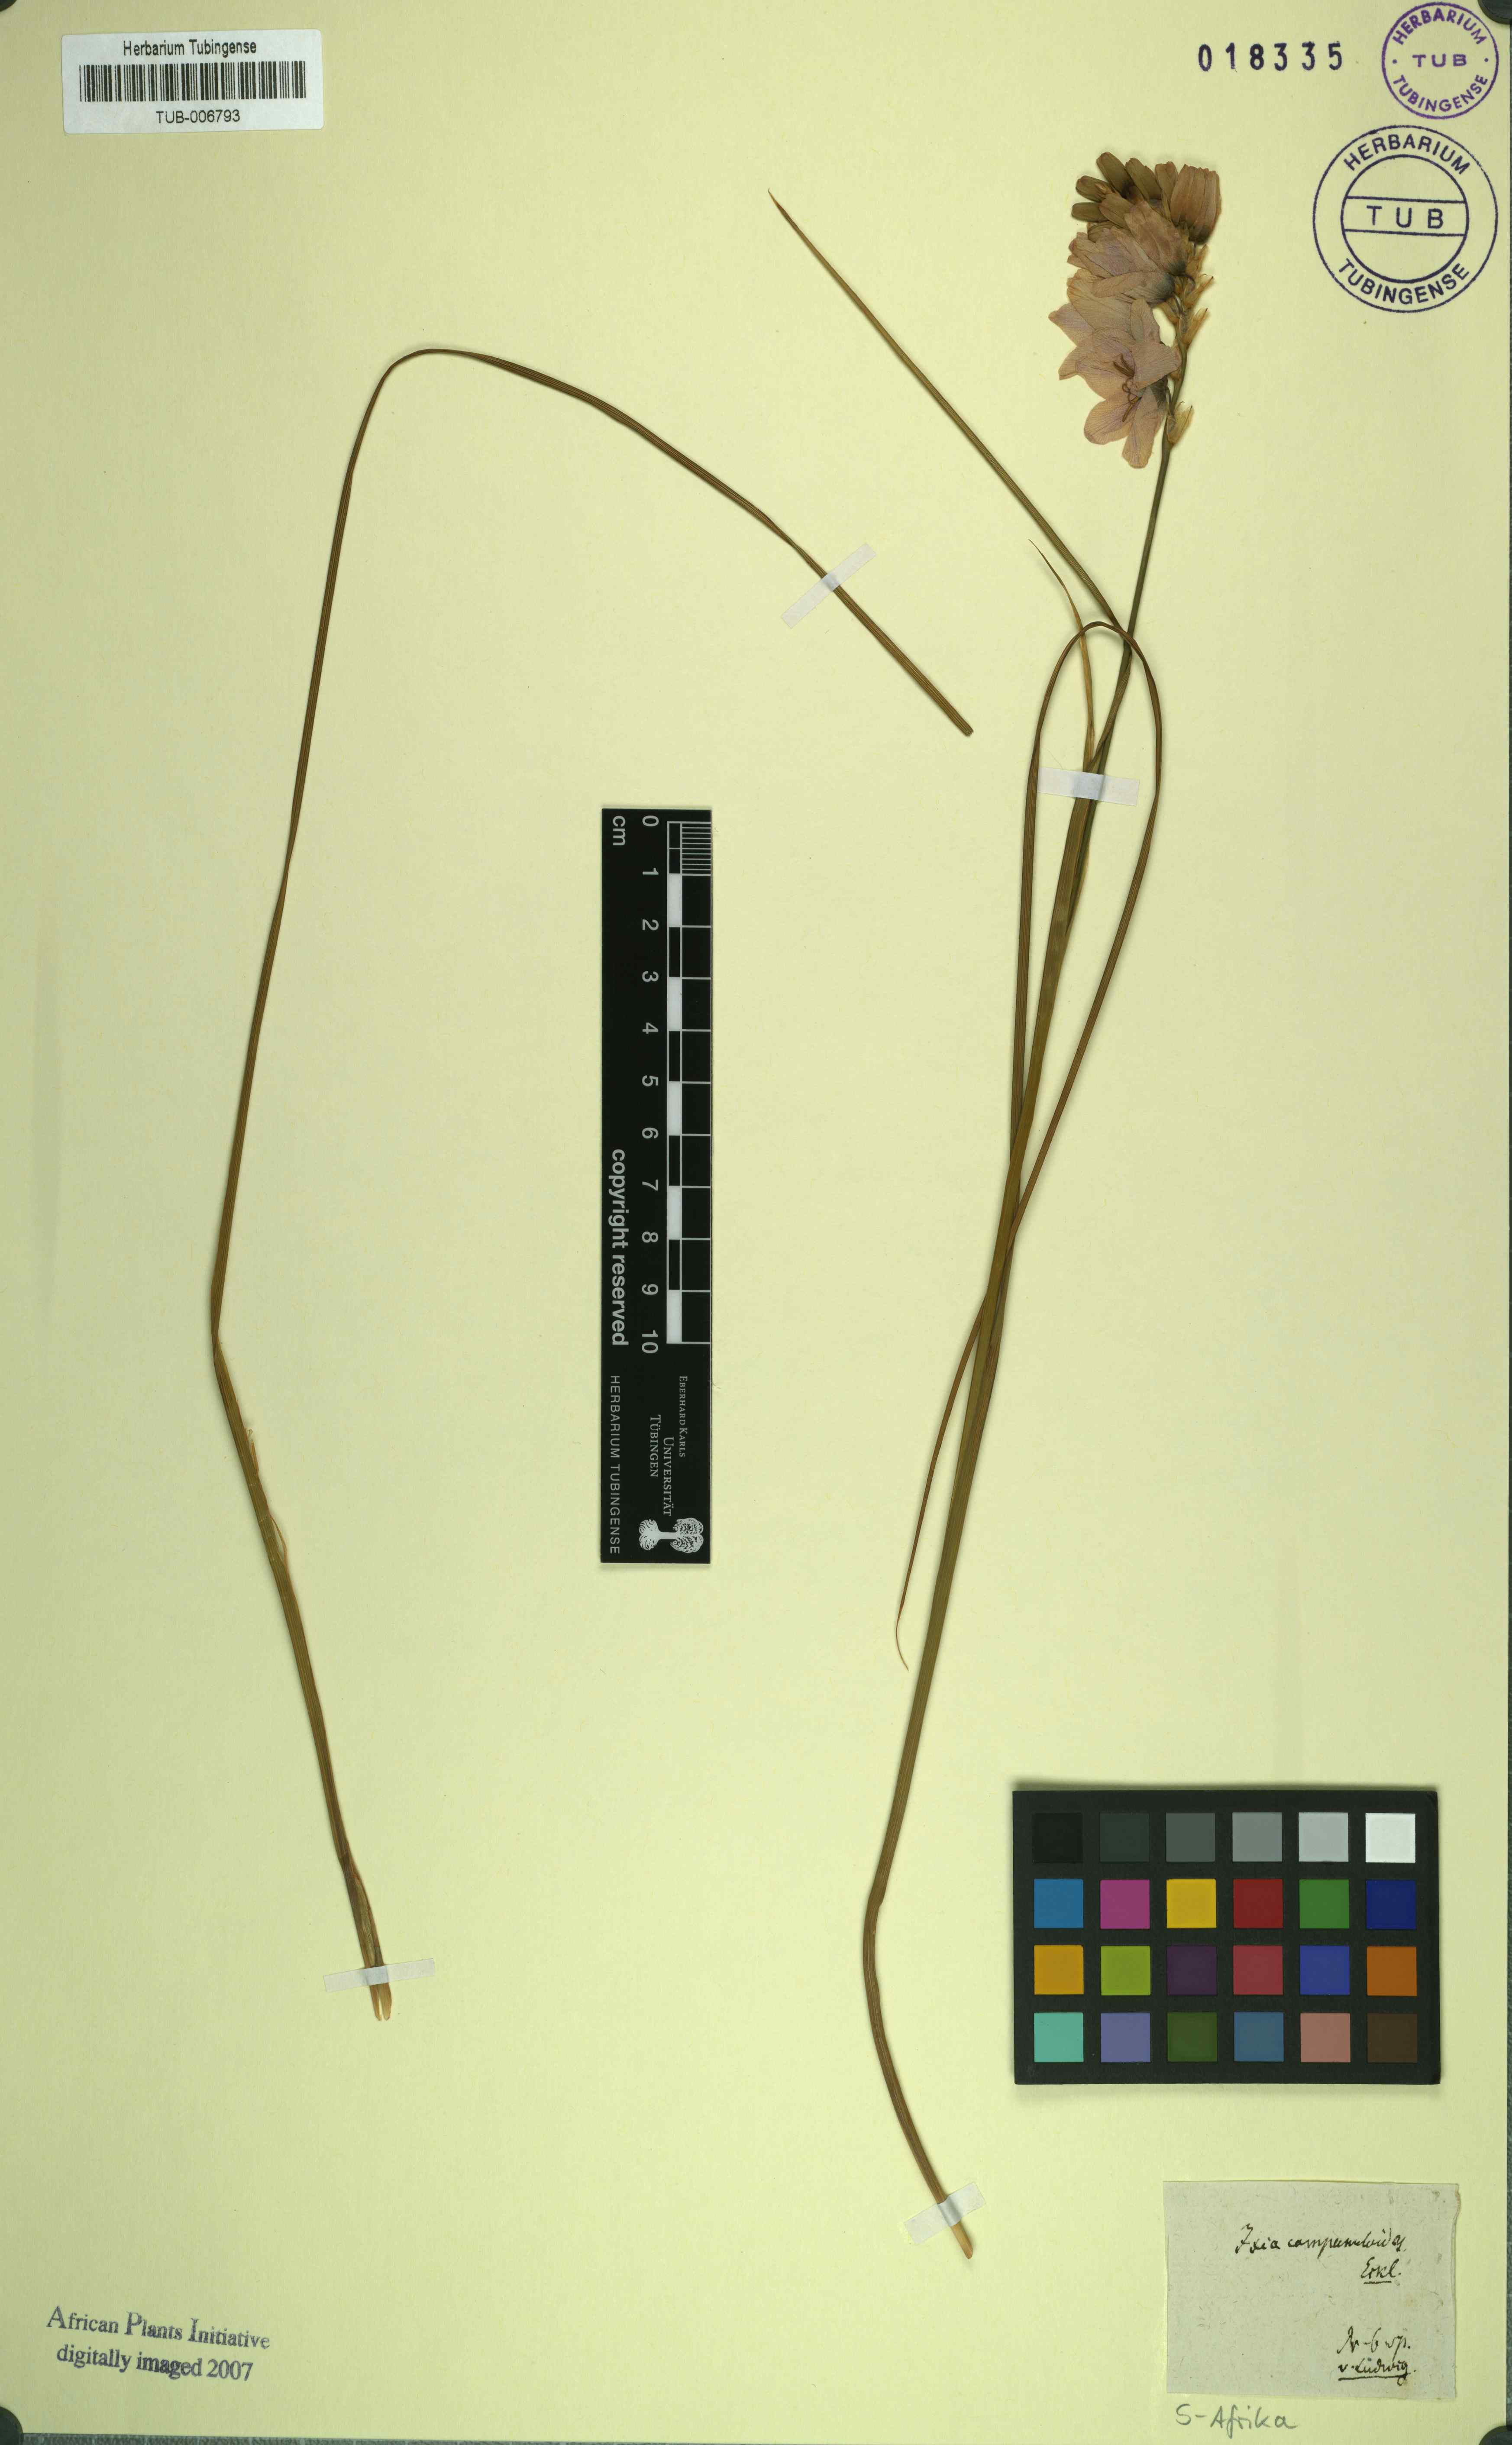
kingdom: Plantae
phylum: Tracheophyta
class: Liliopsida
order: Asparagales
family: Iridaceae
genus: Ixia
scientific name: Ixia campanuloides
